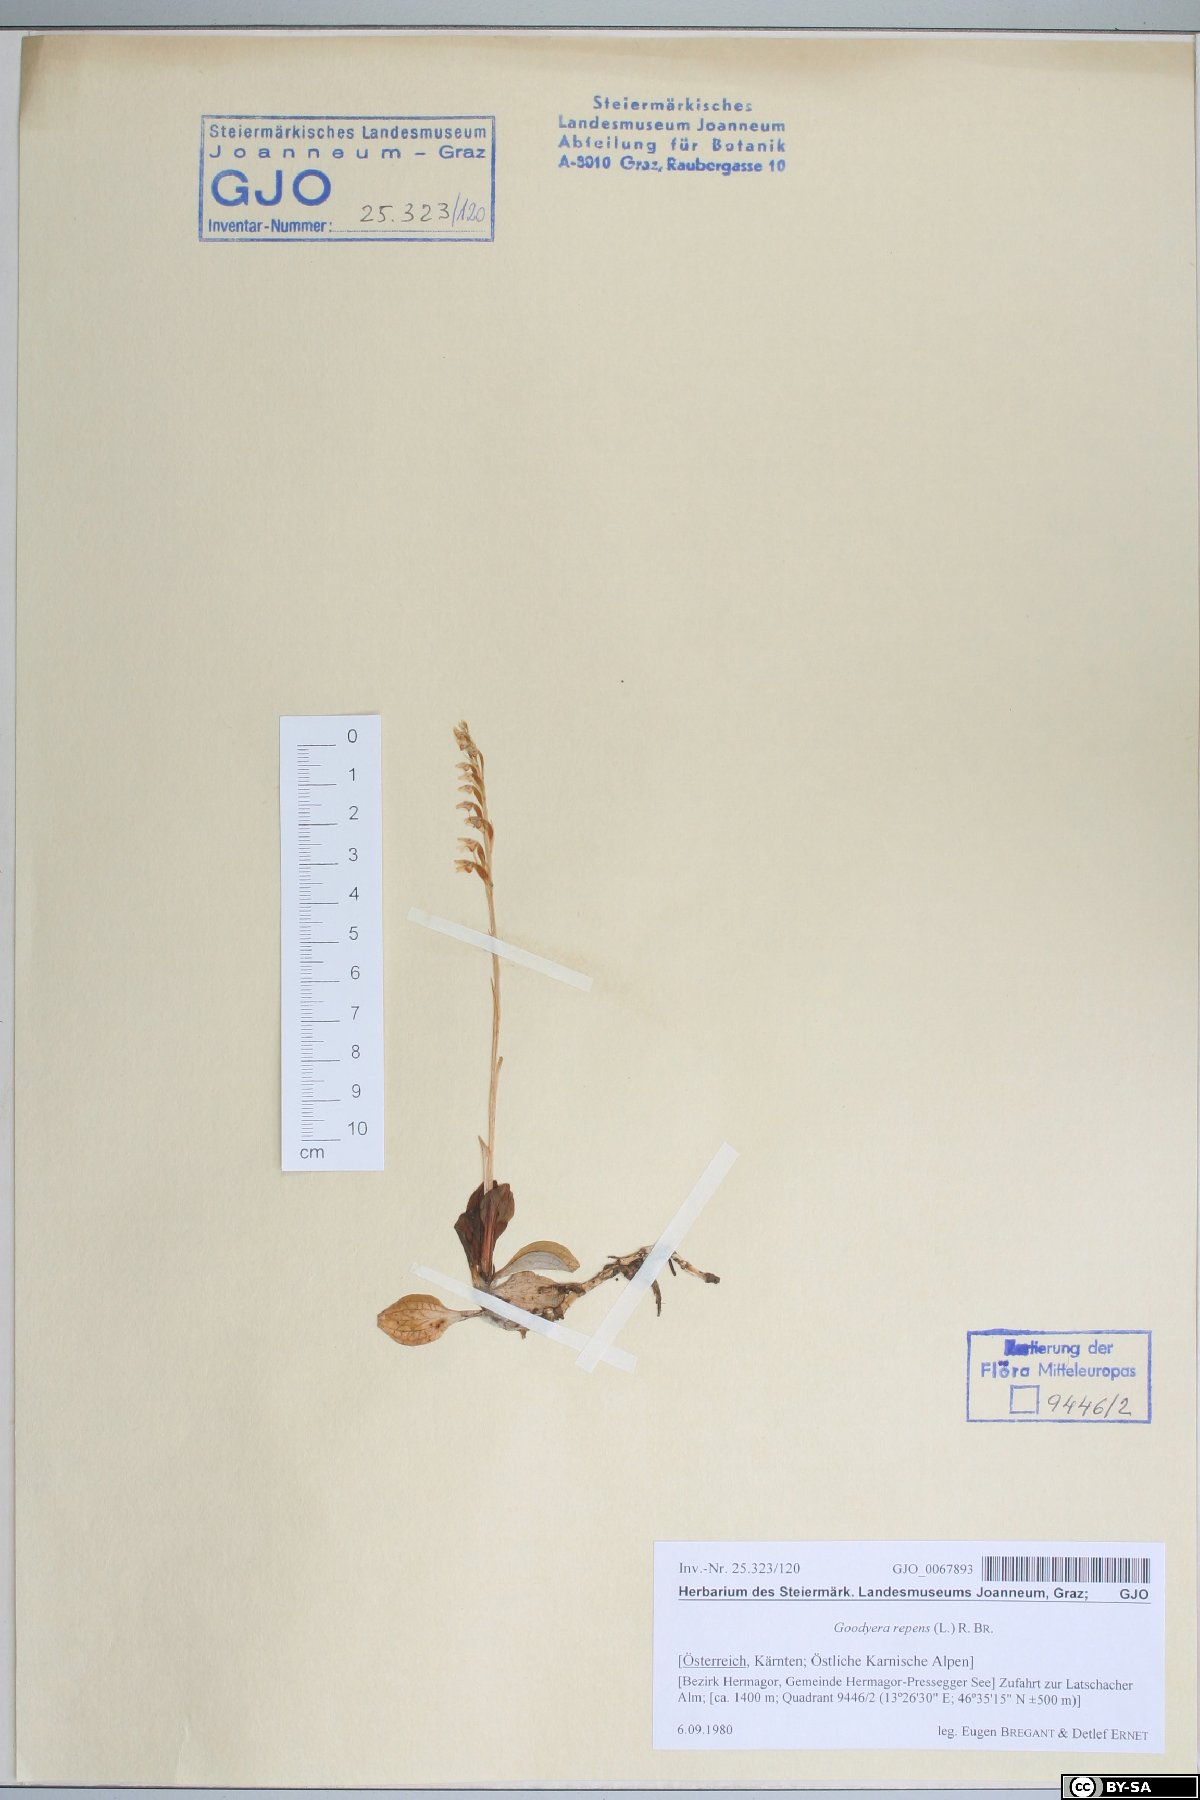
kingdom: Plantae
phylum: Tracheophyta
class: Liliopsida
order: Asparagales
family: Orchidaceae
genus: Goodyera
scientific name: Goodyera repens
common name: Creeping lady's-tresses
